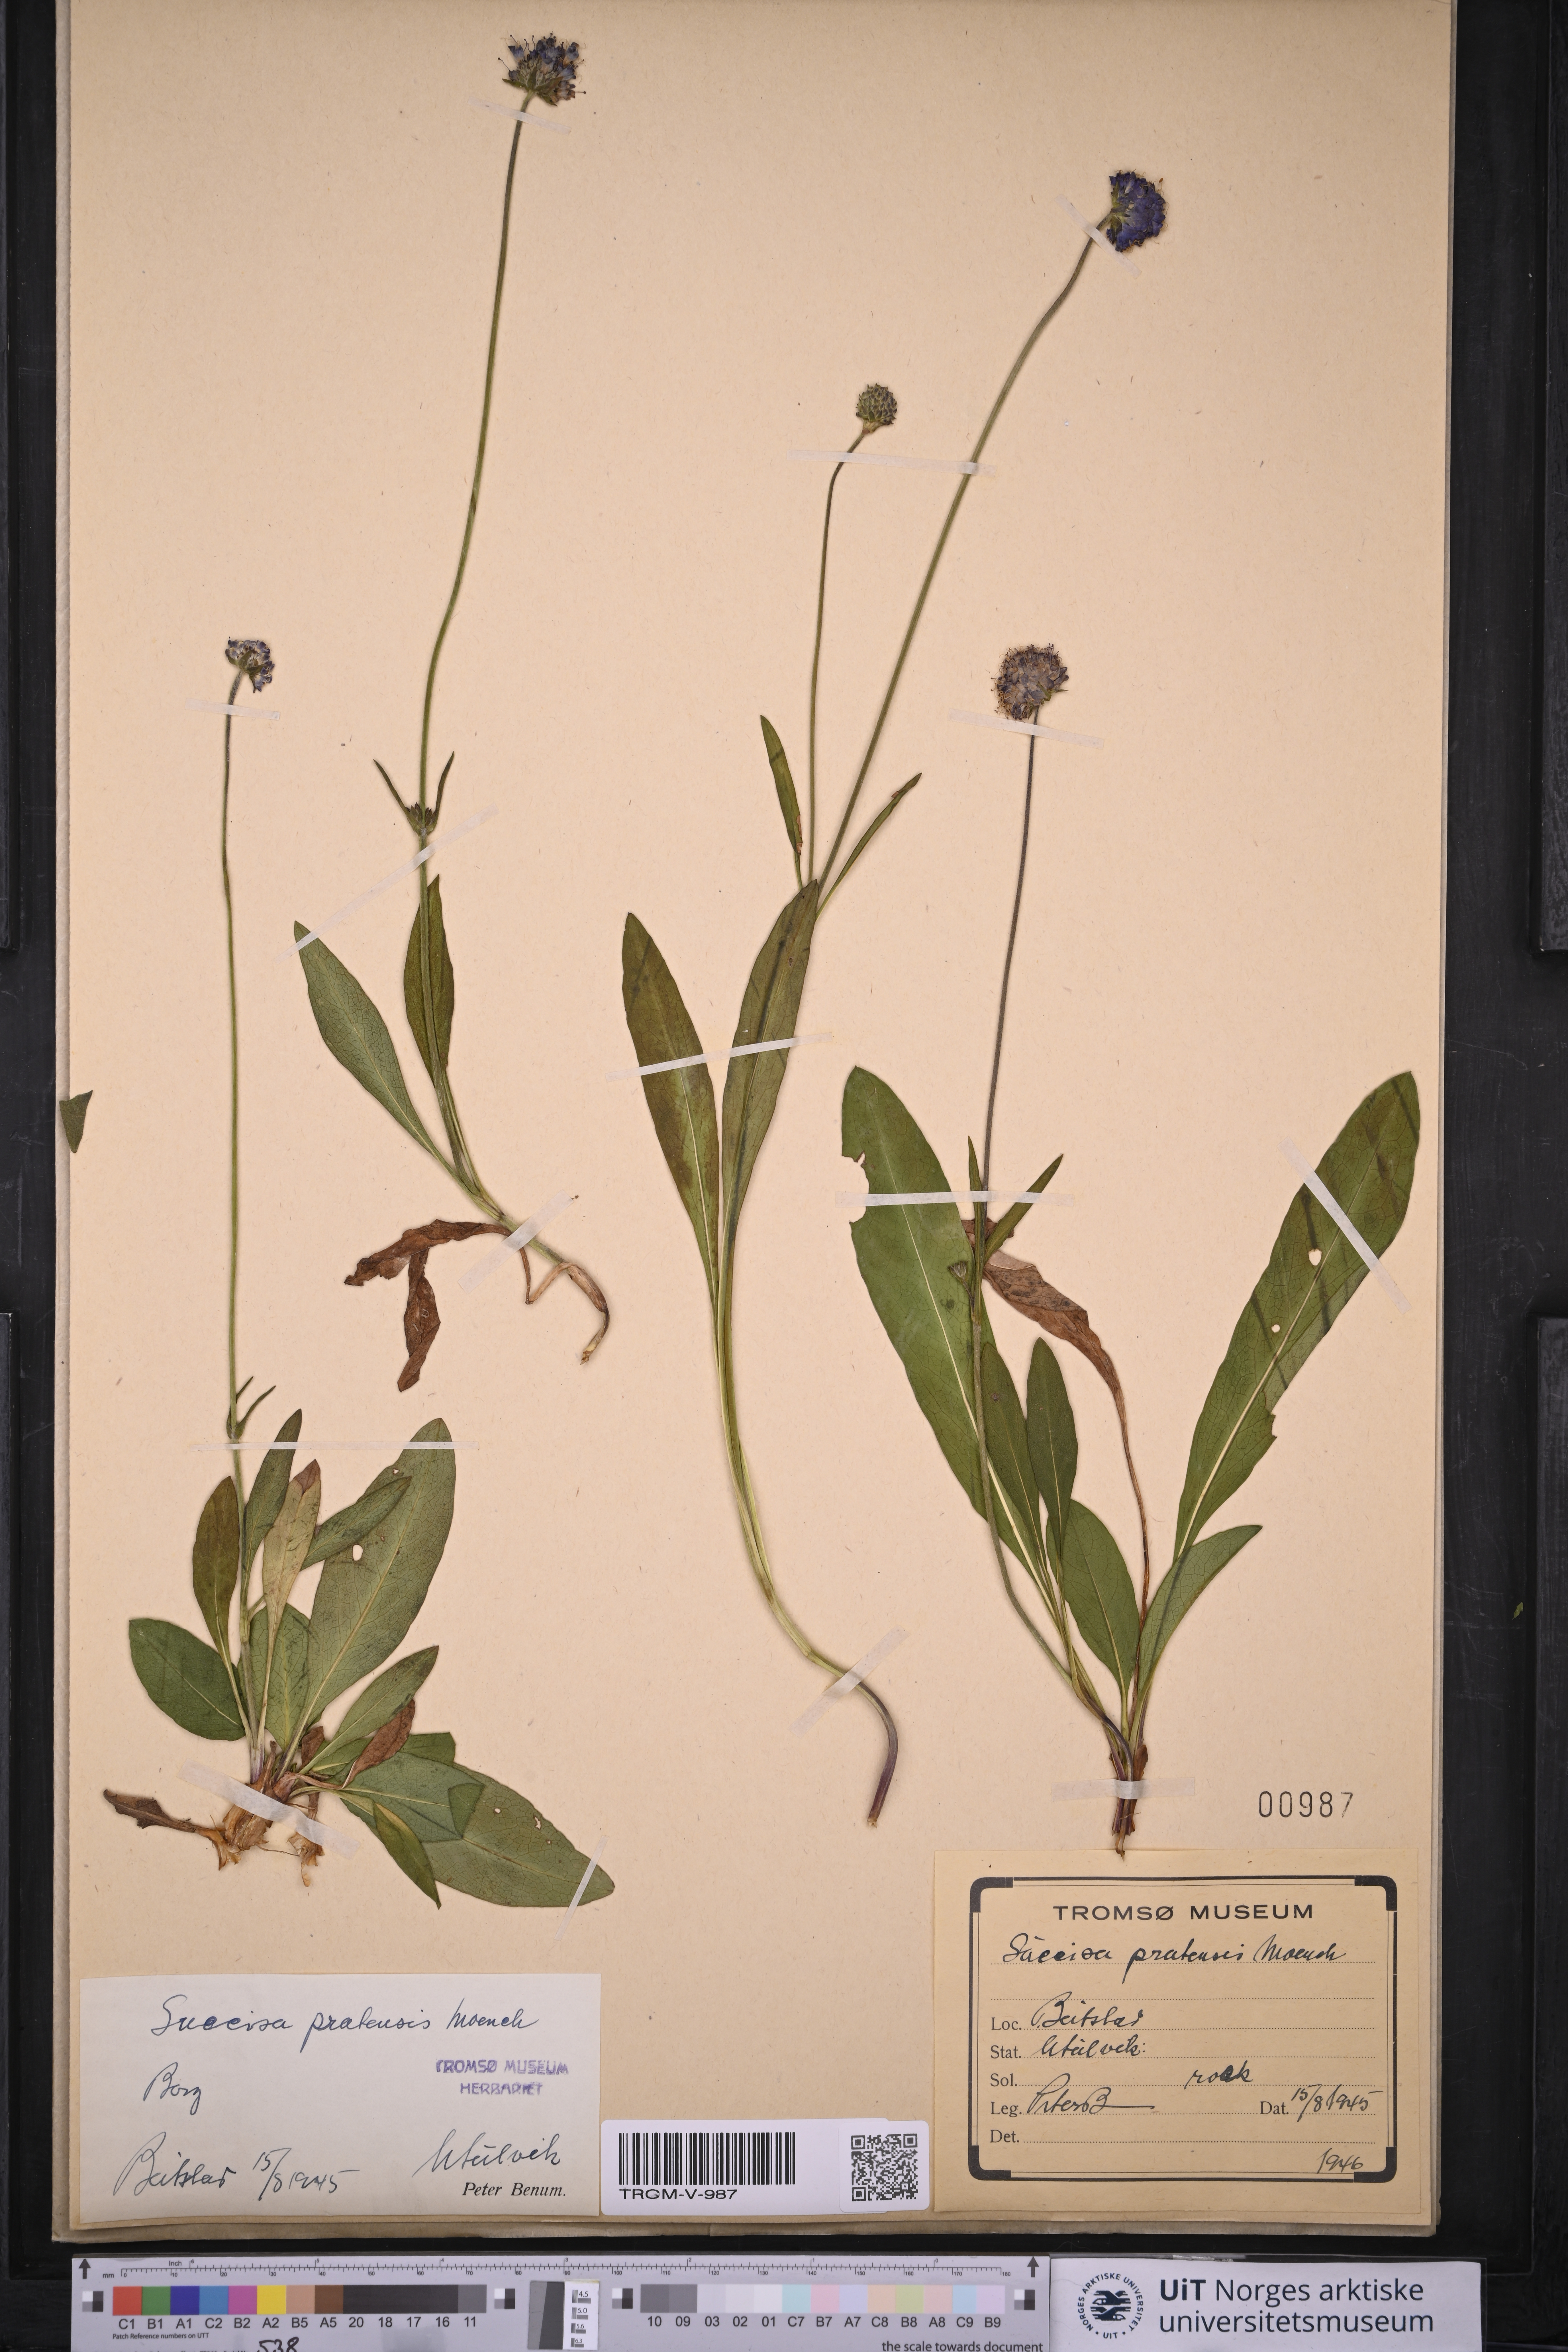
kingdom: Plantae
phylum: Tracheophyta
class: Magnoliopsida
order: Dipsacales
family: Caprifoliaceae
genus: Succisa
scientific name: Succisa pratensis
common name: Devil's-bit
